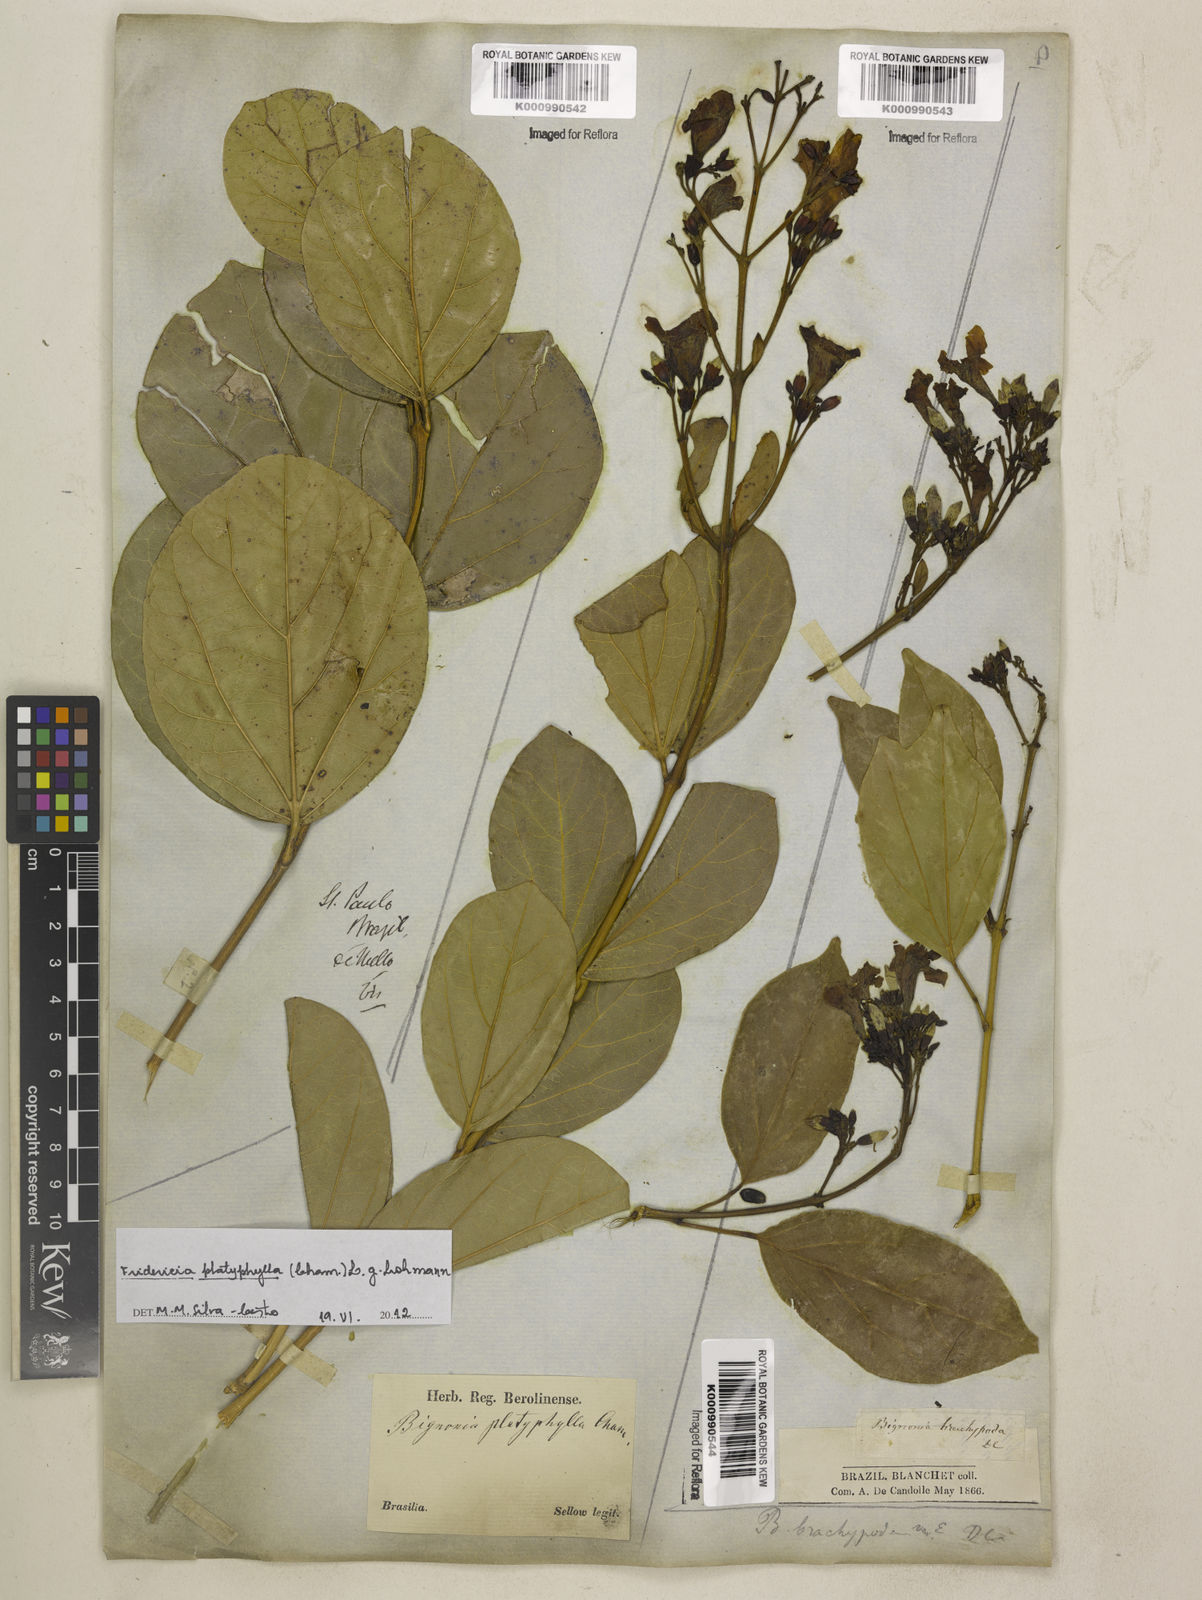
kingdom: Plantae
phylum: Tracheophyta
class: Magnoliopsida
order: Lamiales
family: Bignoniaceae
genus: Fridericia
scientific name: Fridericia platyphylla
